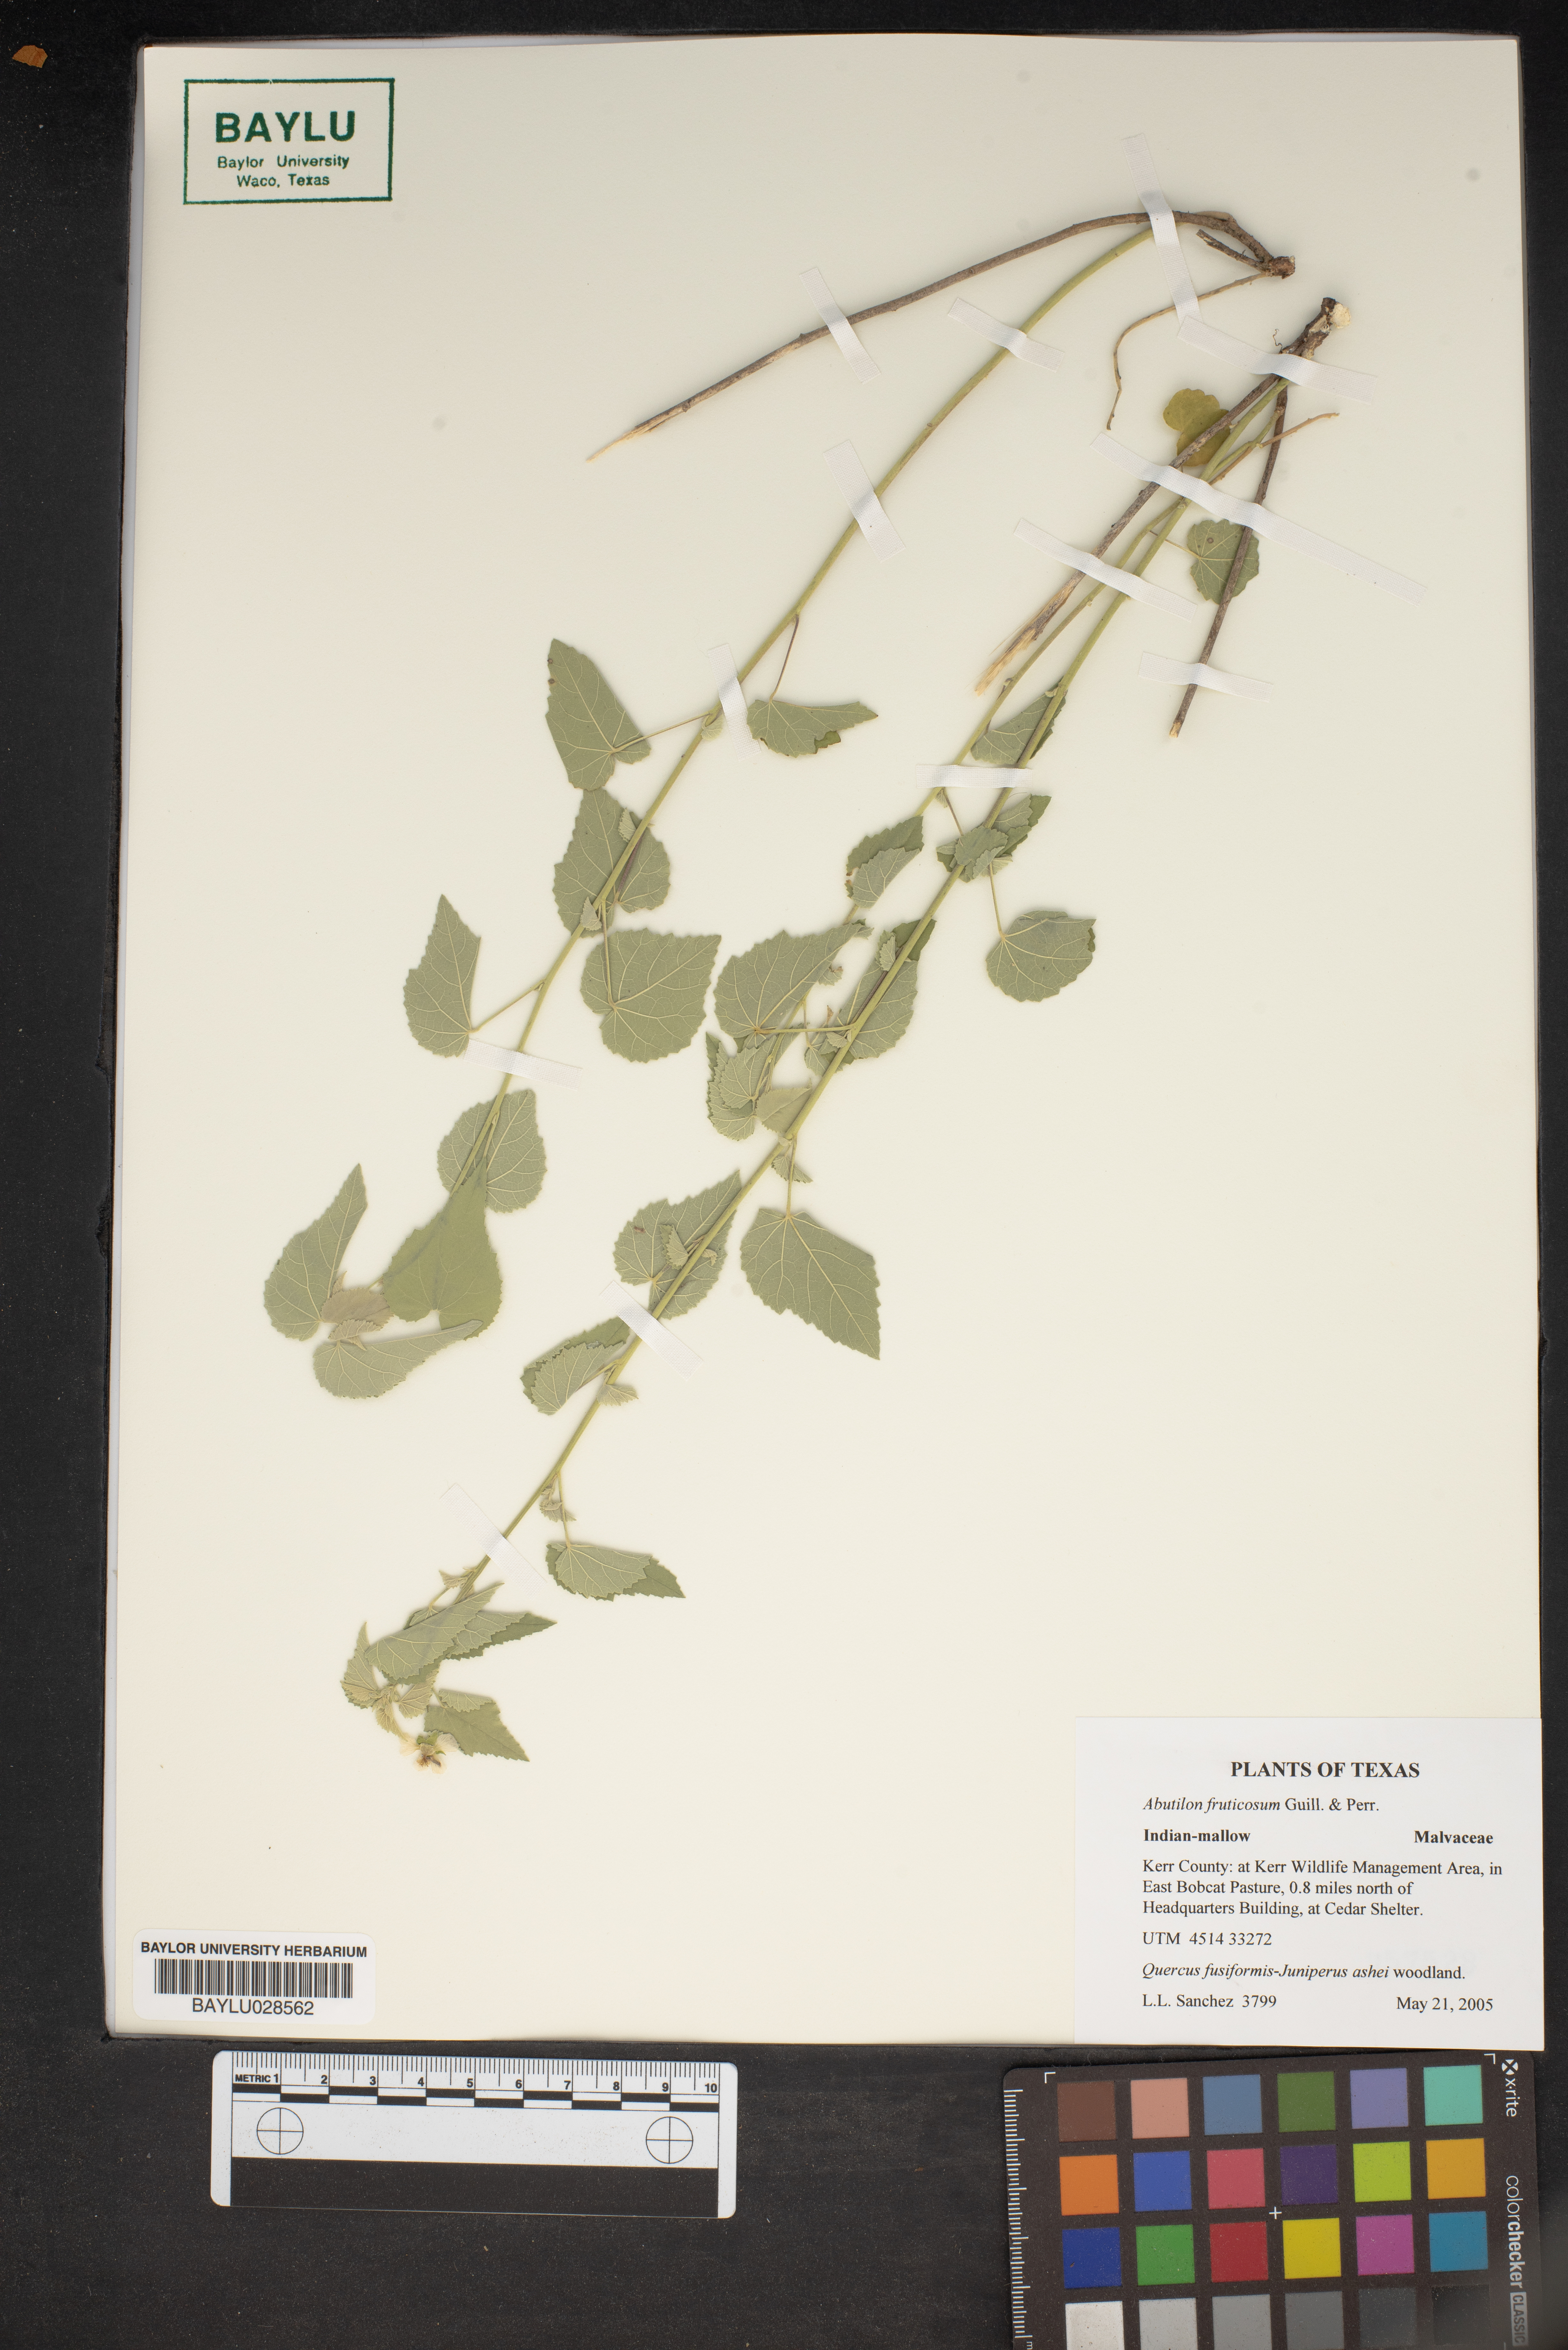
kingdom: Plantae
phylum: Tracheophyta
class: Magnoliopsida
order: Malvales
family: Malvaceae
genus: Abutilon
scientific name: Abutilon fruticosum
